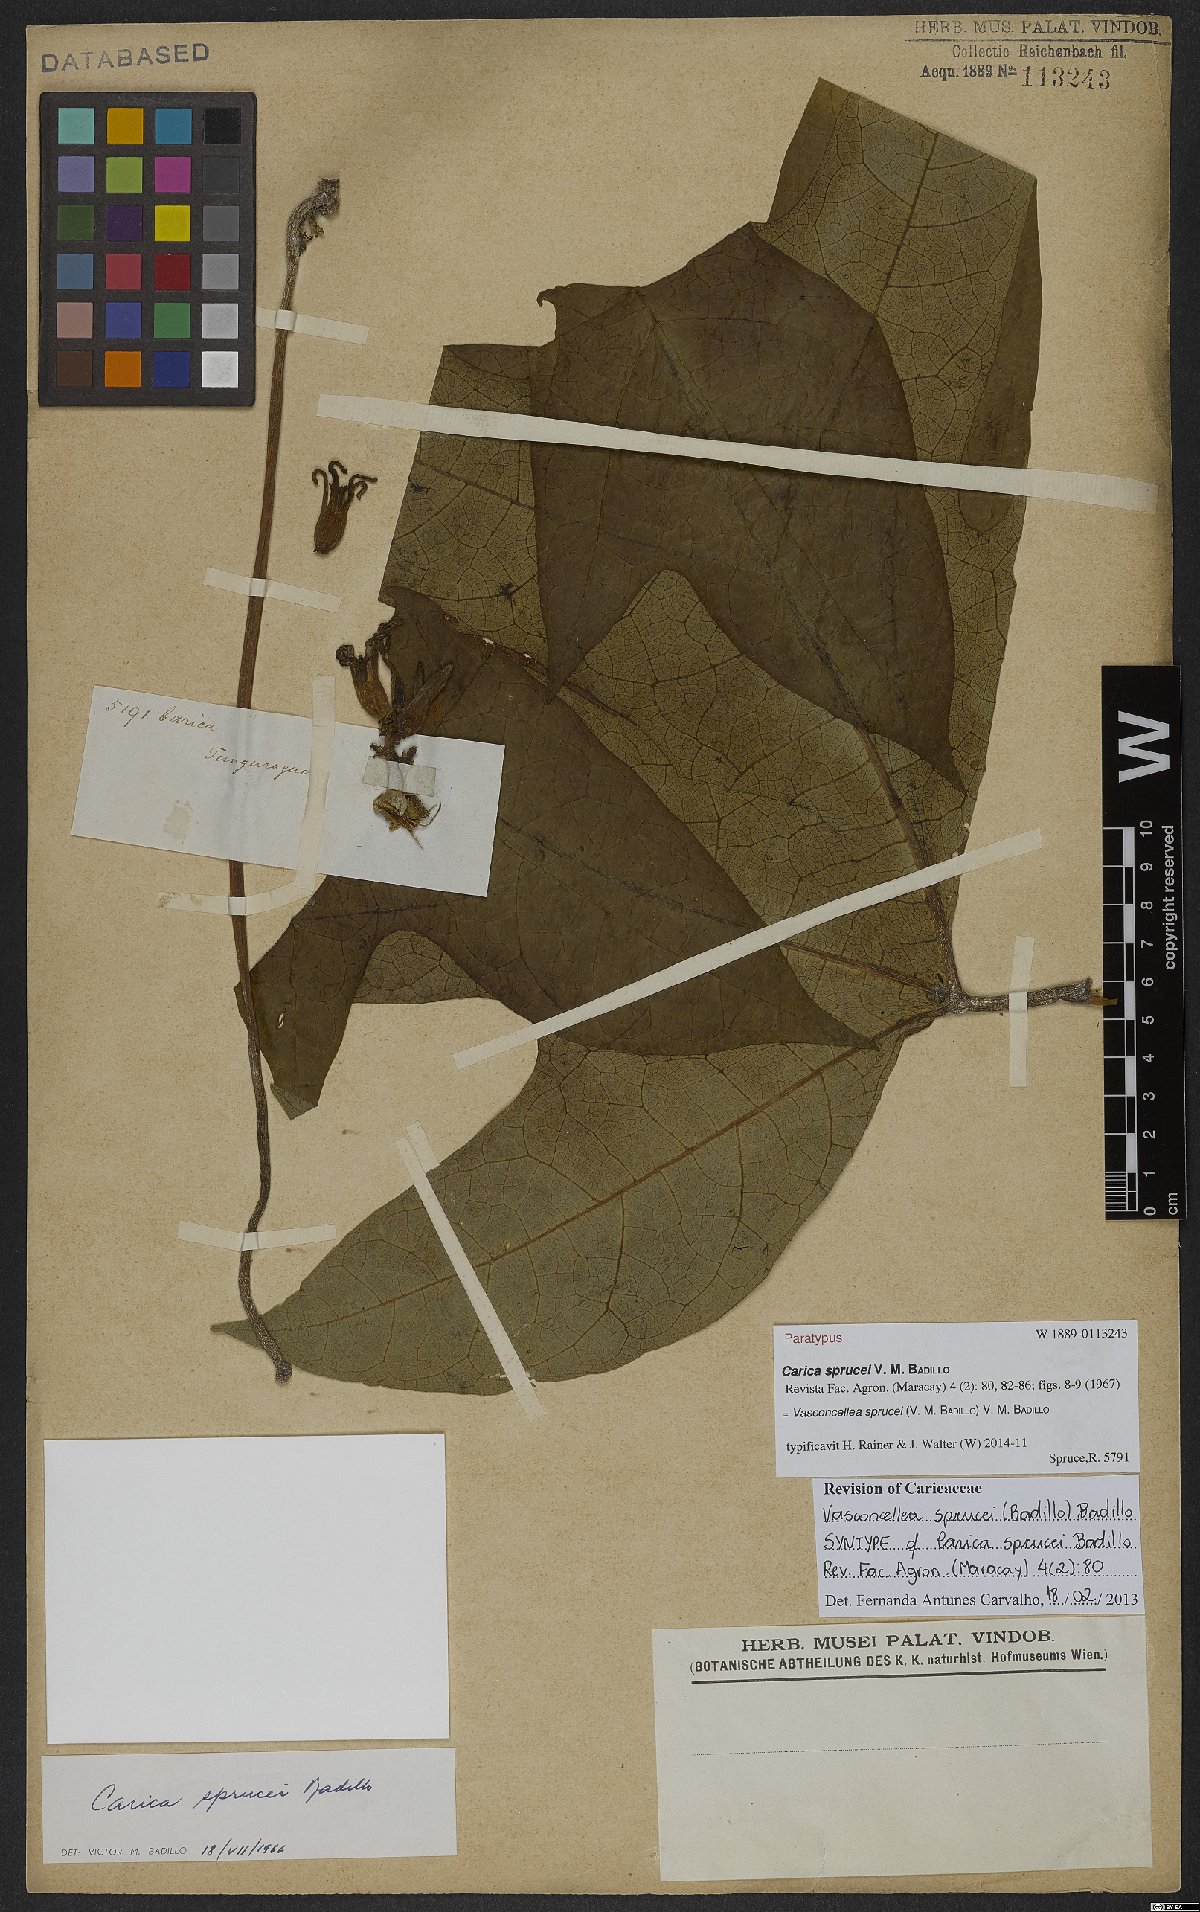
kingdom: Plantae
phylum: Tracheophyta
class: Magnoliopsida
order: Brassicales
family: Caricaceae
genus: Vasconcellea
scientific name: Vasconcellea sprucei
